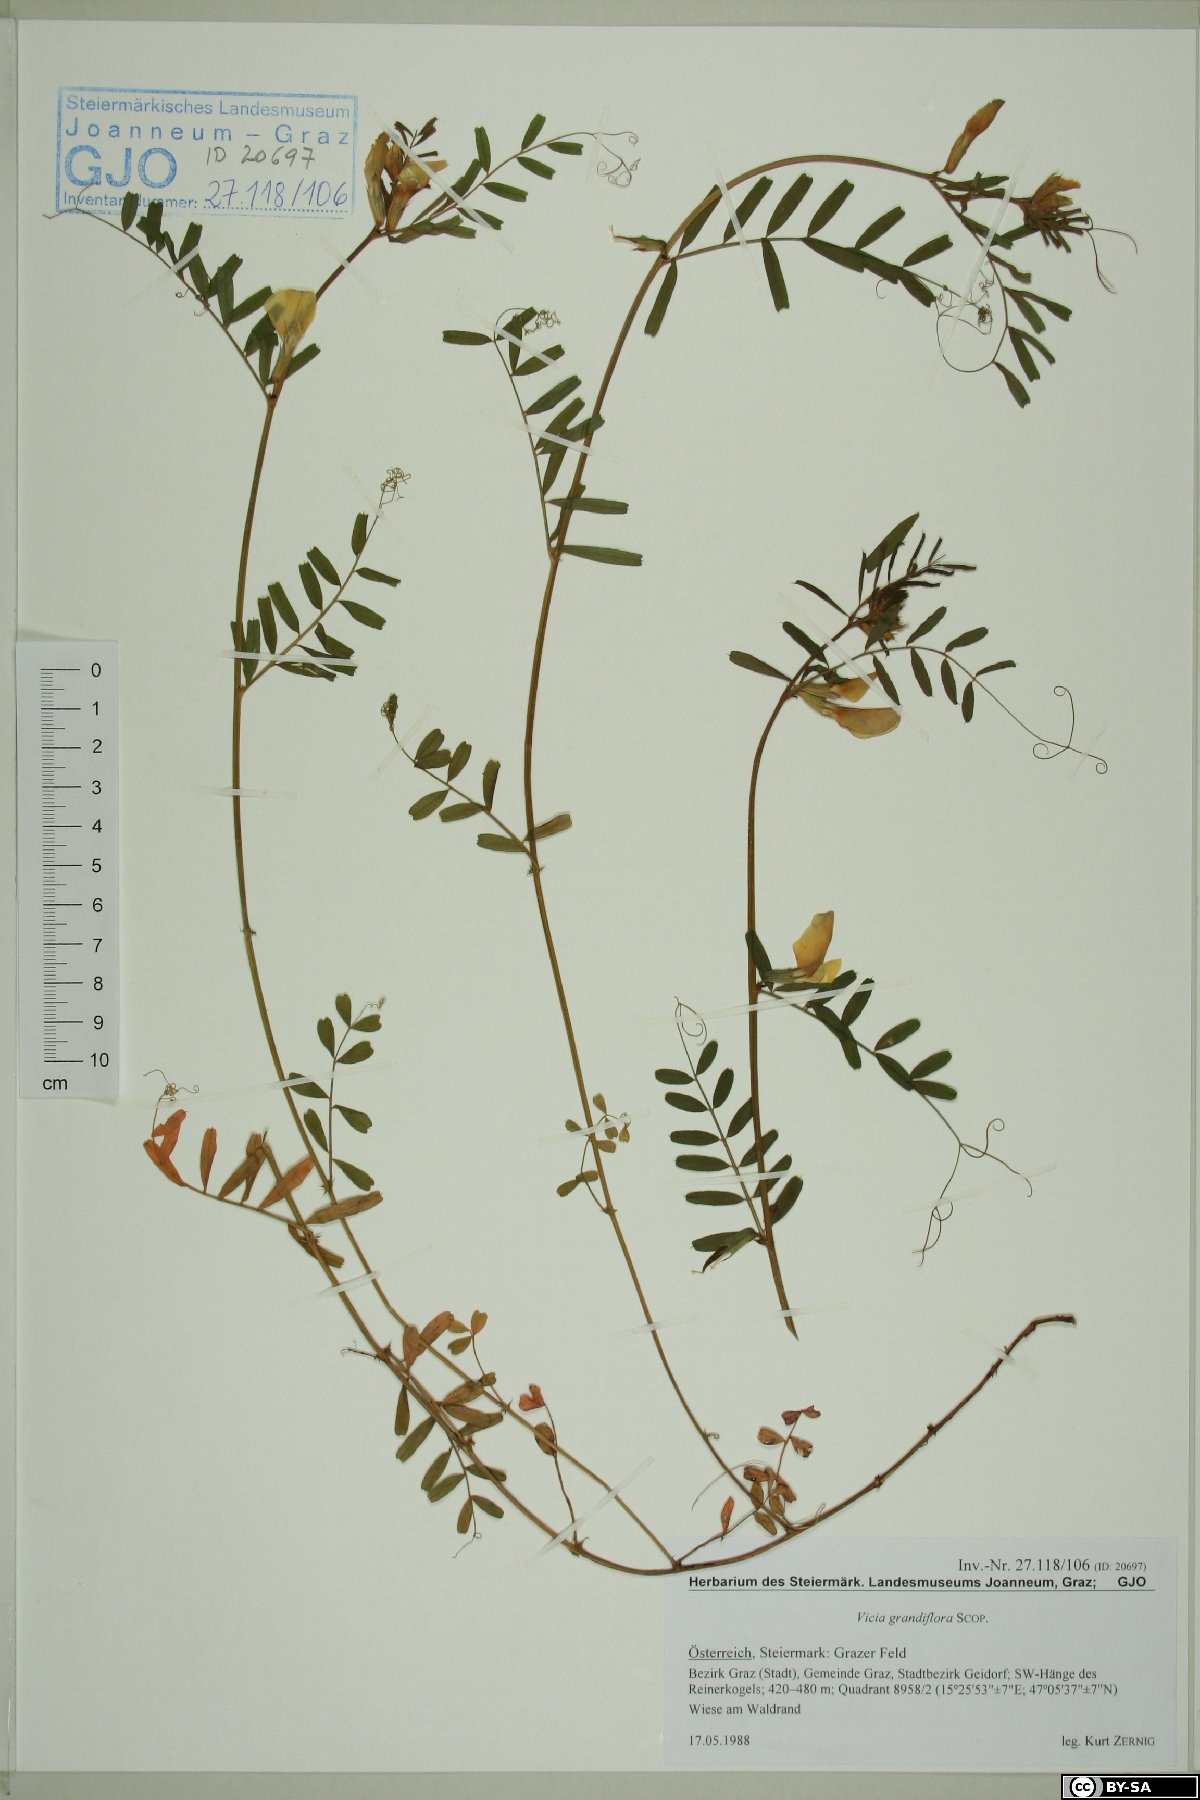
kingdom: Plantae
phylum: Tracheophyta
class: Magnoliopsida
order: Fabales
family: Fabaceae
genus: Vicia
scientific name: Vicia grandiflora
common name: Large yellow vetch
